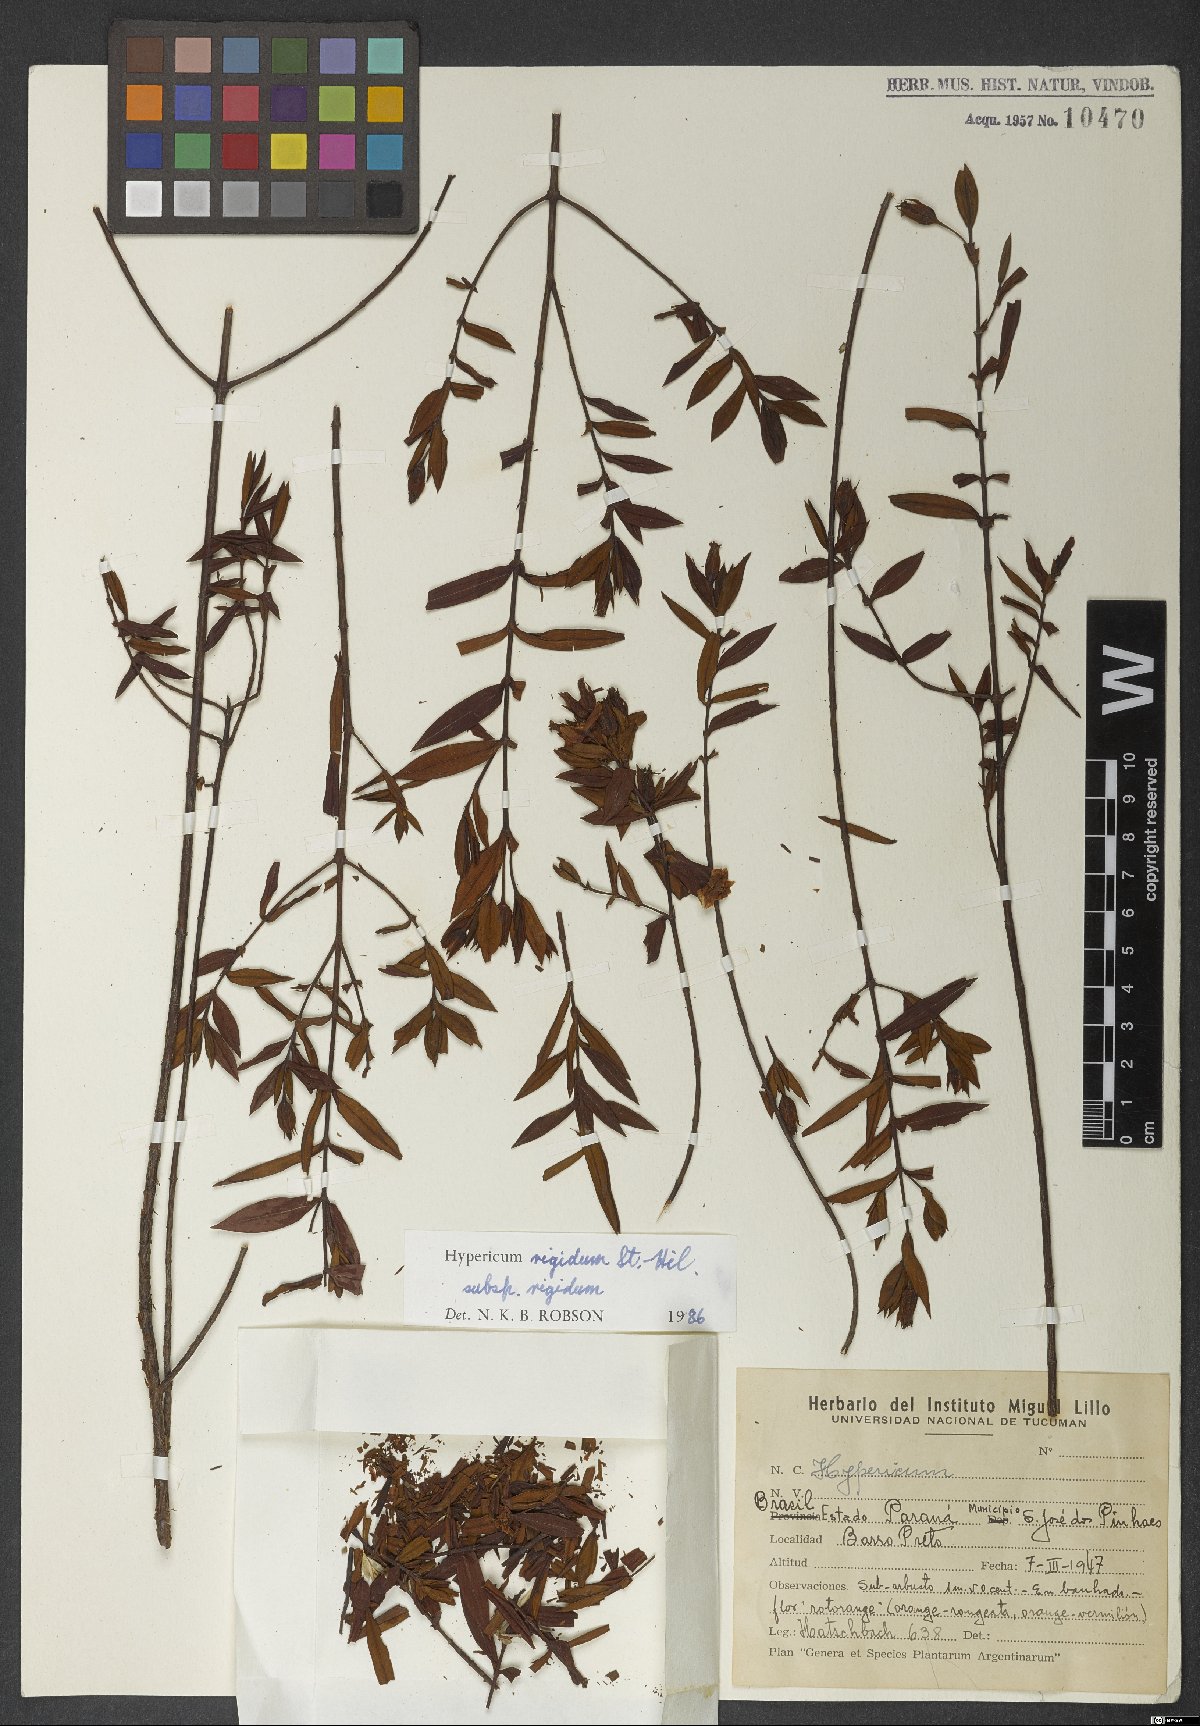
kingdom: Plantae
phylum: Tracheophyta
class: Magnoliopsida
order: Malpighiales
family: Hypericaceae
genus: Hypericum
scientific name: Hypericum rigidum
